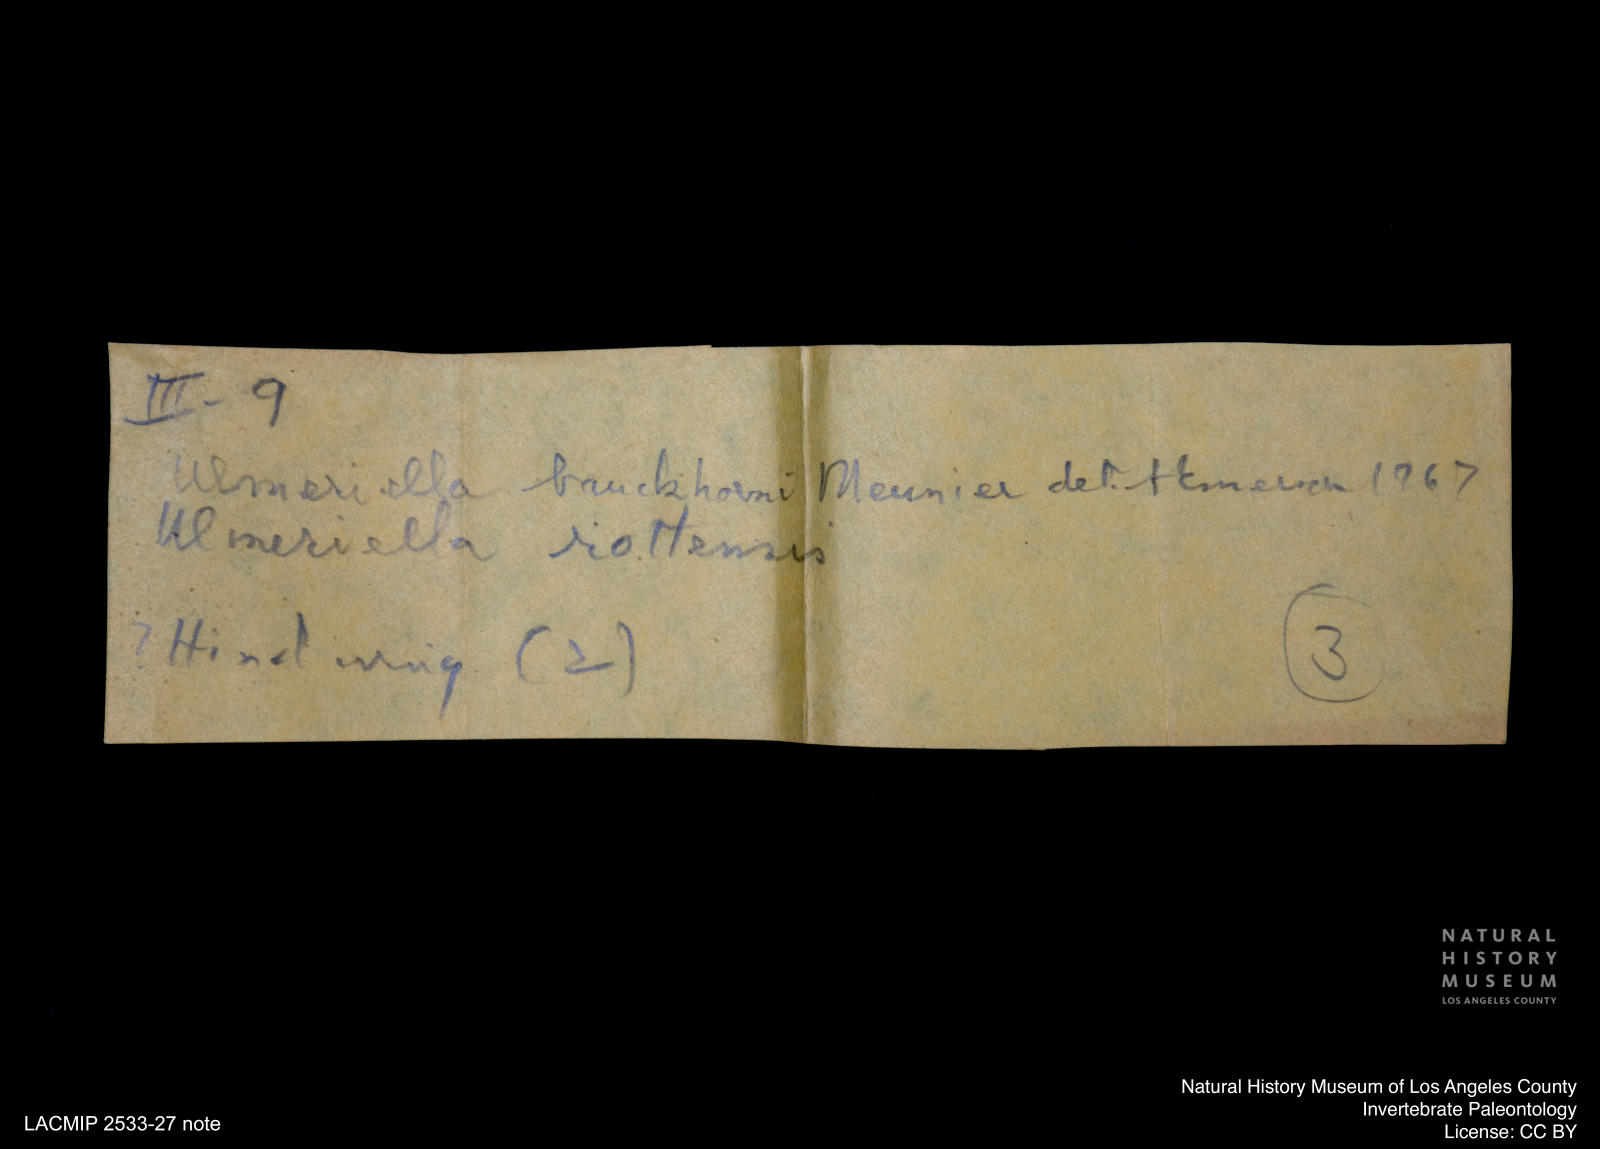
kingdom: Animalia
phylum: Arthropoda
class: Insecta
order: Blattodea
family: Hodotermitidae
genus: Ulmeriella
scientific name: Ulmeriella bauckhorni
